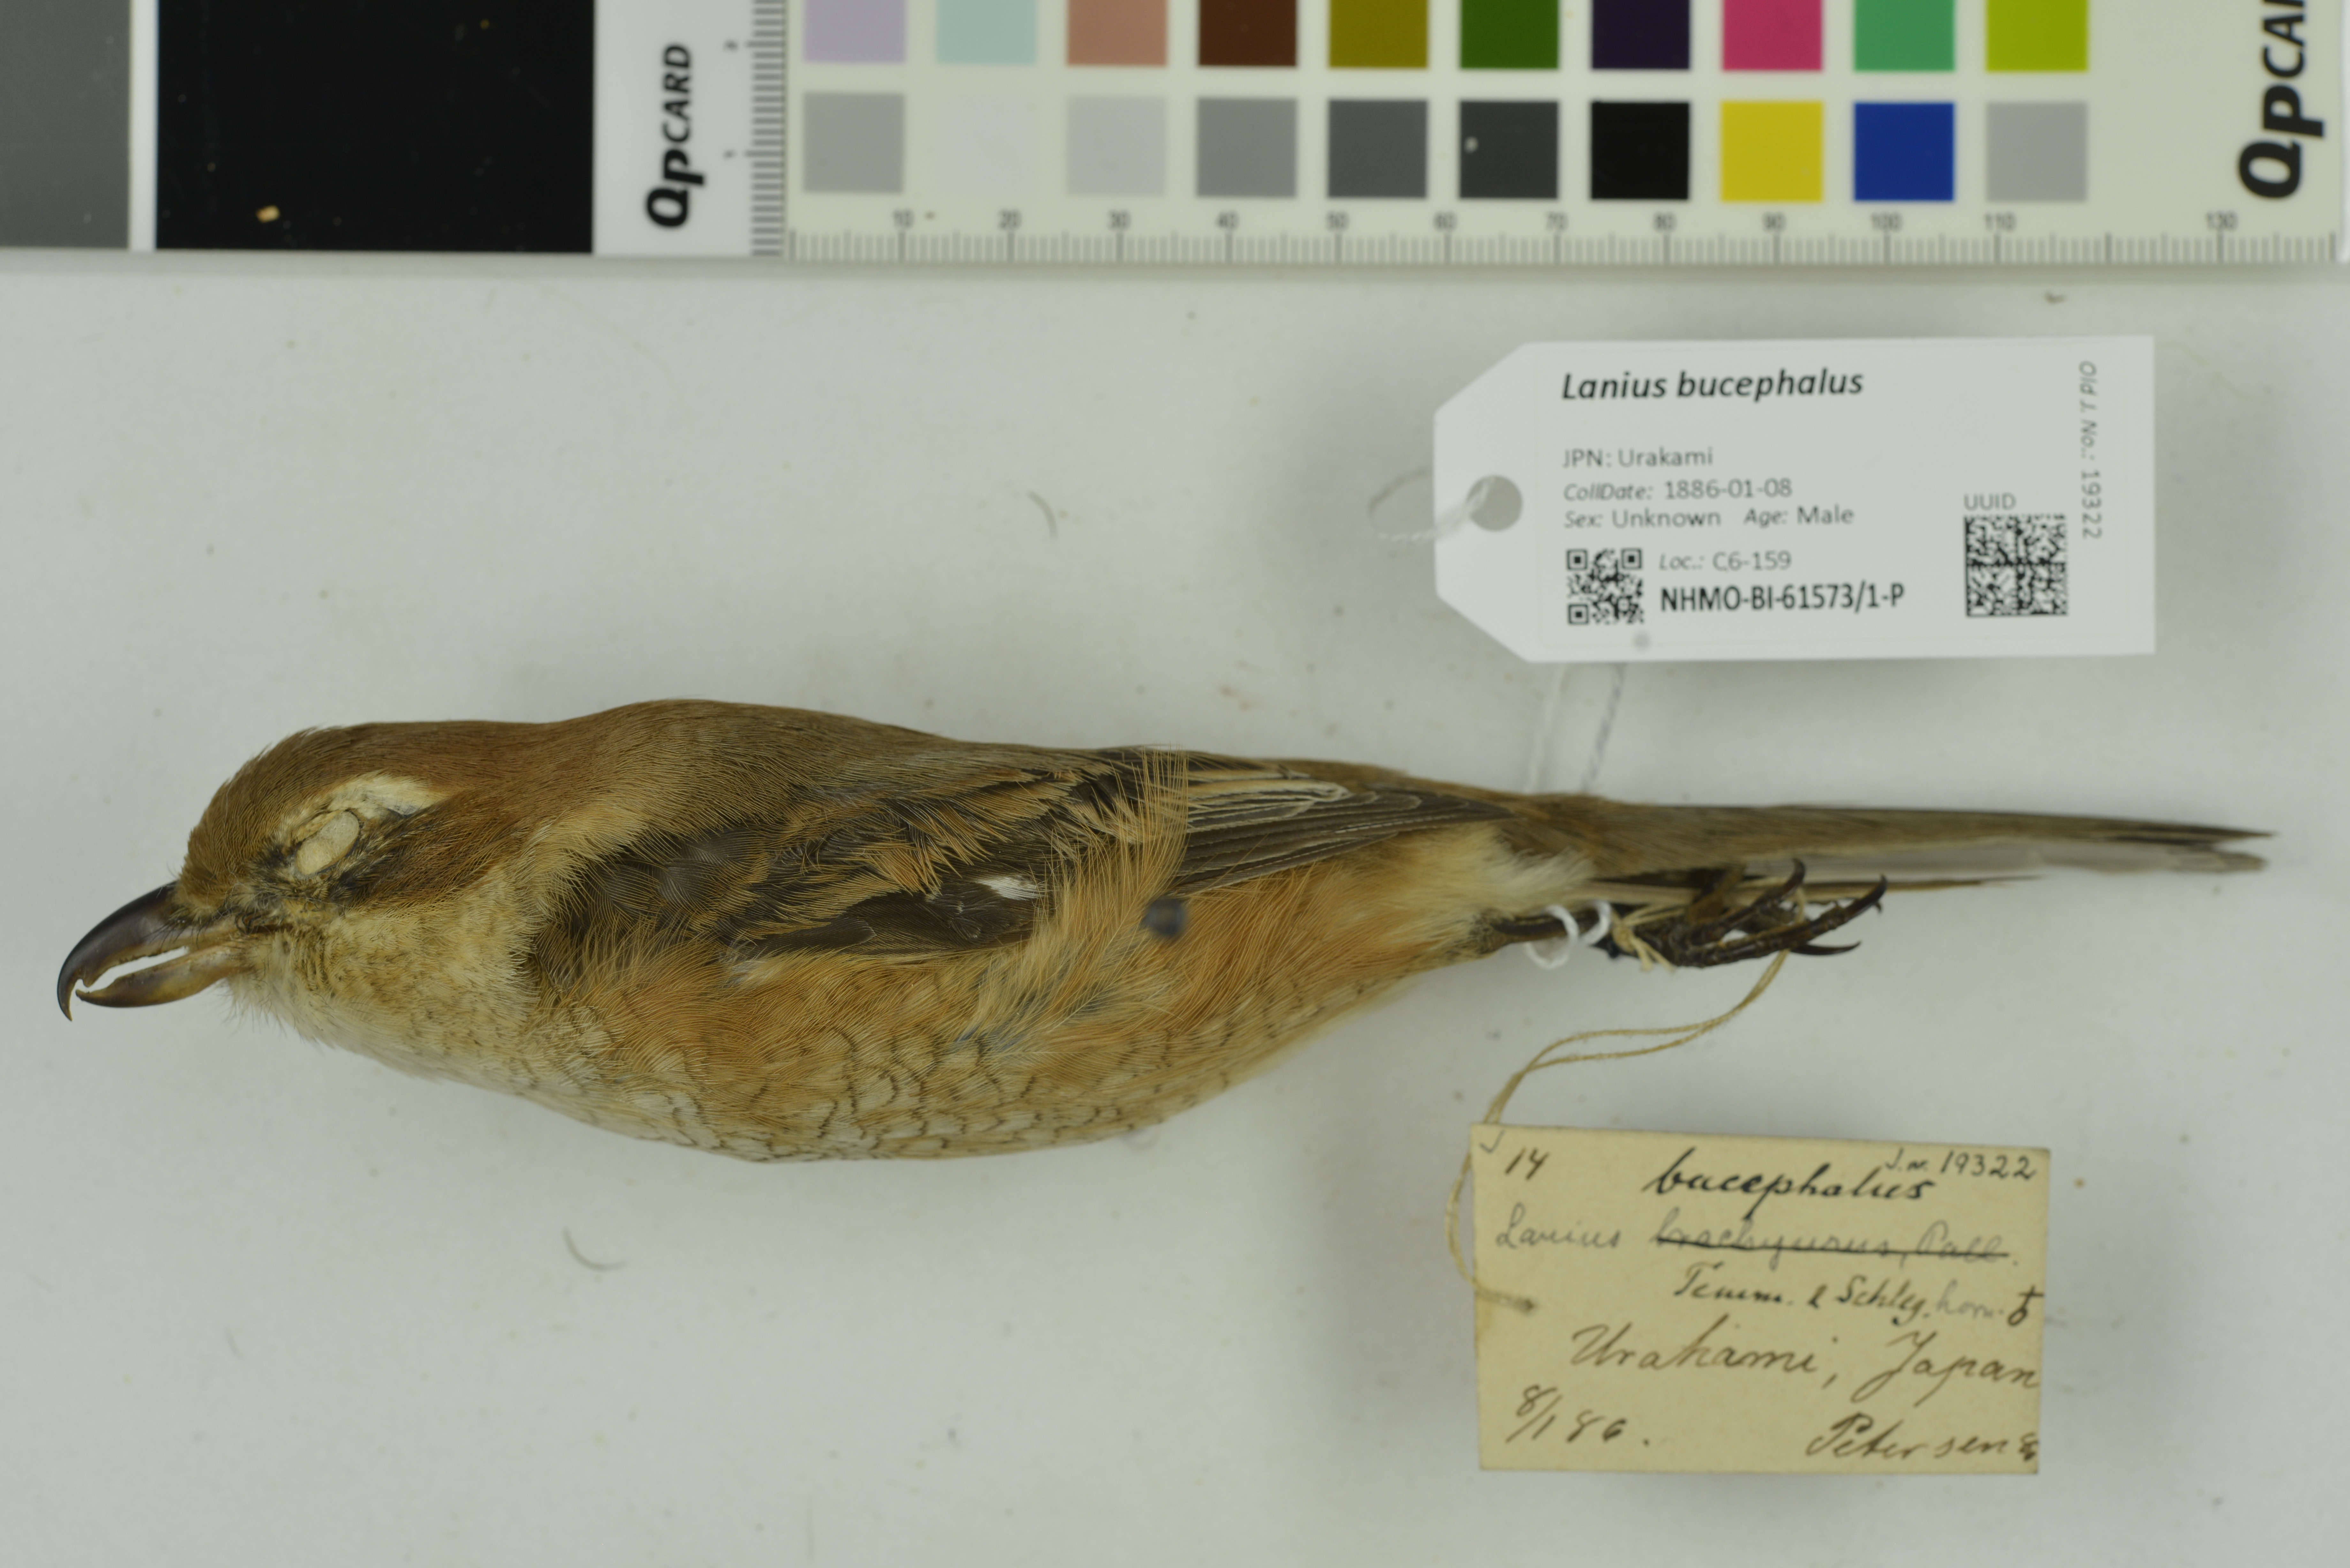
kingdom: Animalia
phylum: Chordata
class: Aves
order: Passeriformes
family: Laniidae
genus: Lanius
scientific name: Lanius bucephalus
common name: Bull-headed shrike
